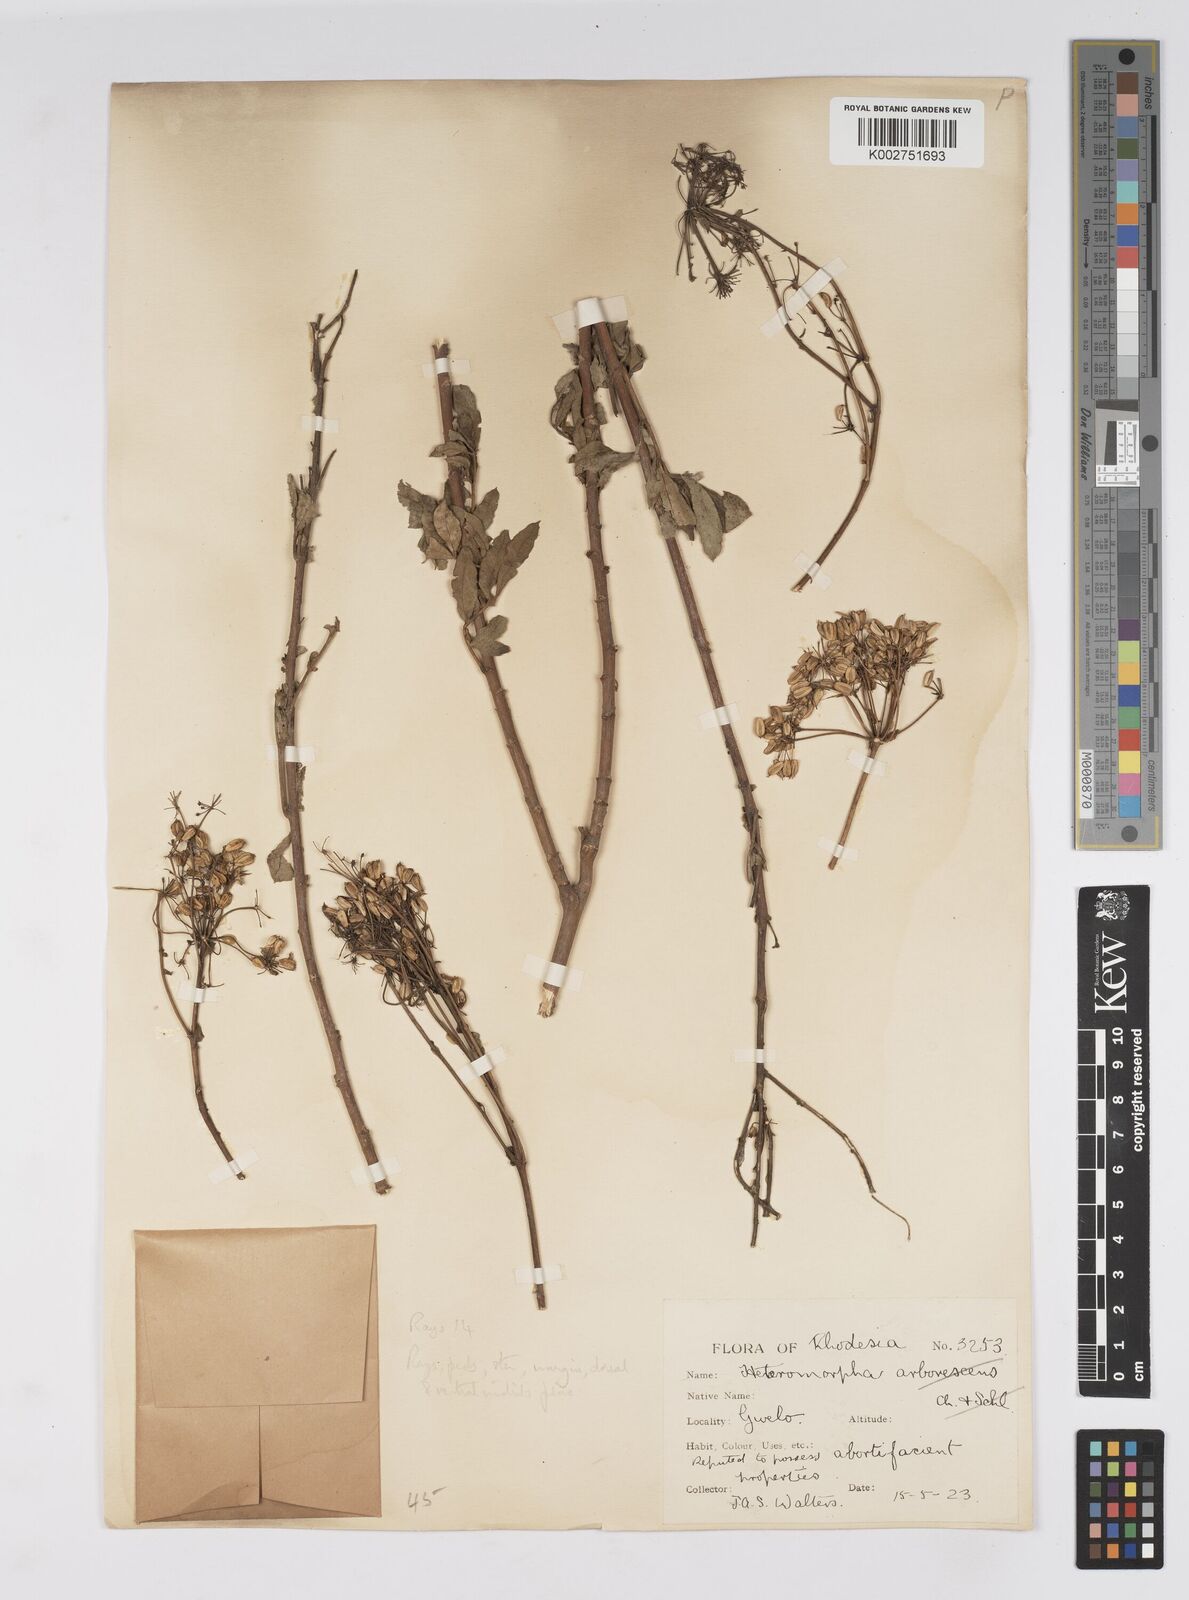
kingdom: Plantae
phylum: Tracheophyta
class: Magnoliopsida
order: Apiales
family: Apiaceae
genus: Heteromorpha
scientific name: Heteromorpha stenophylla
